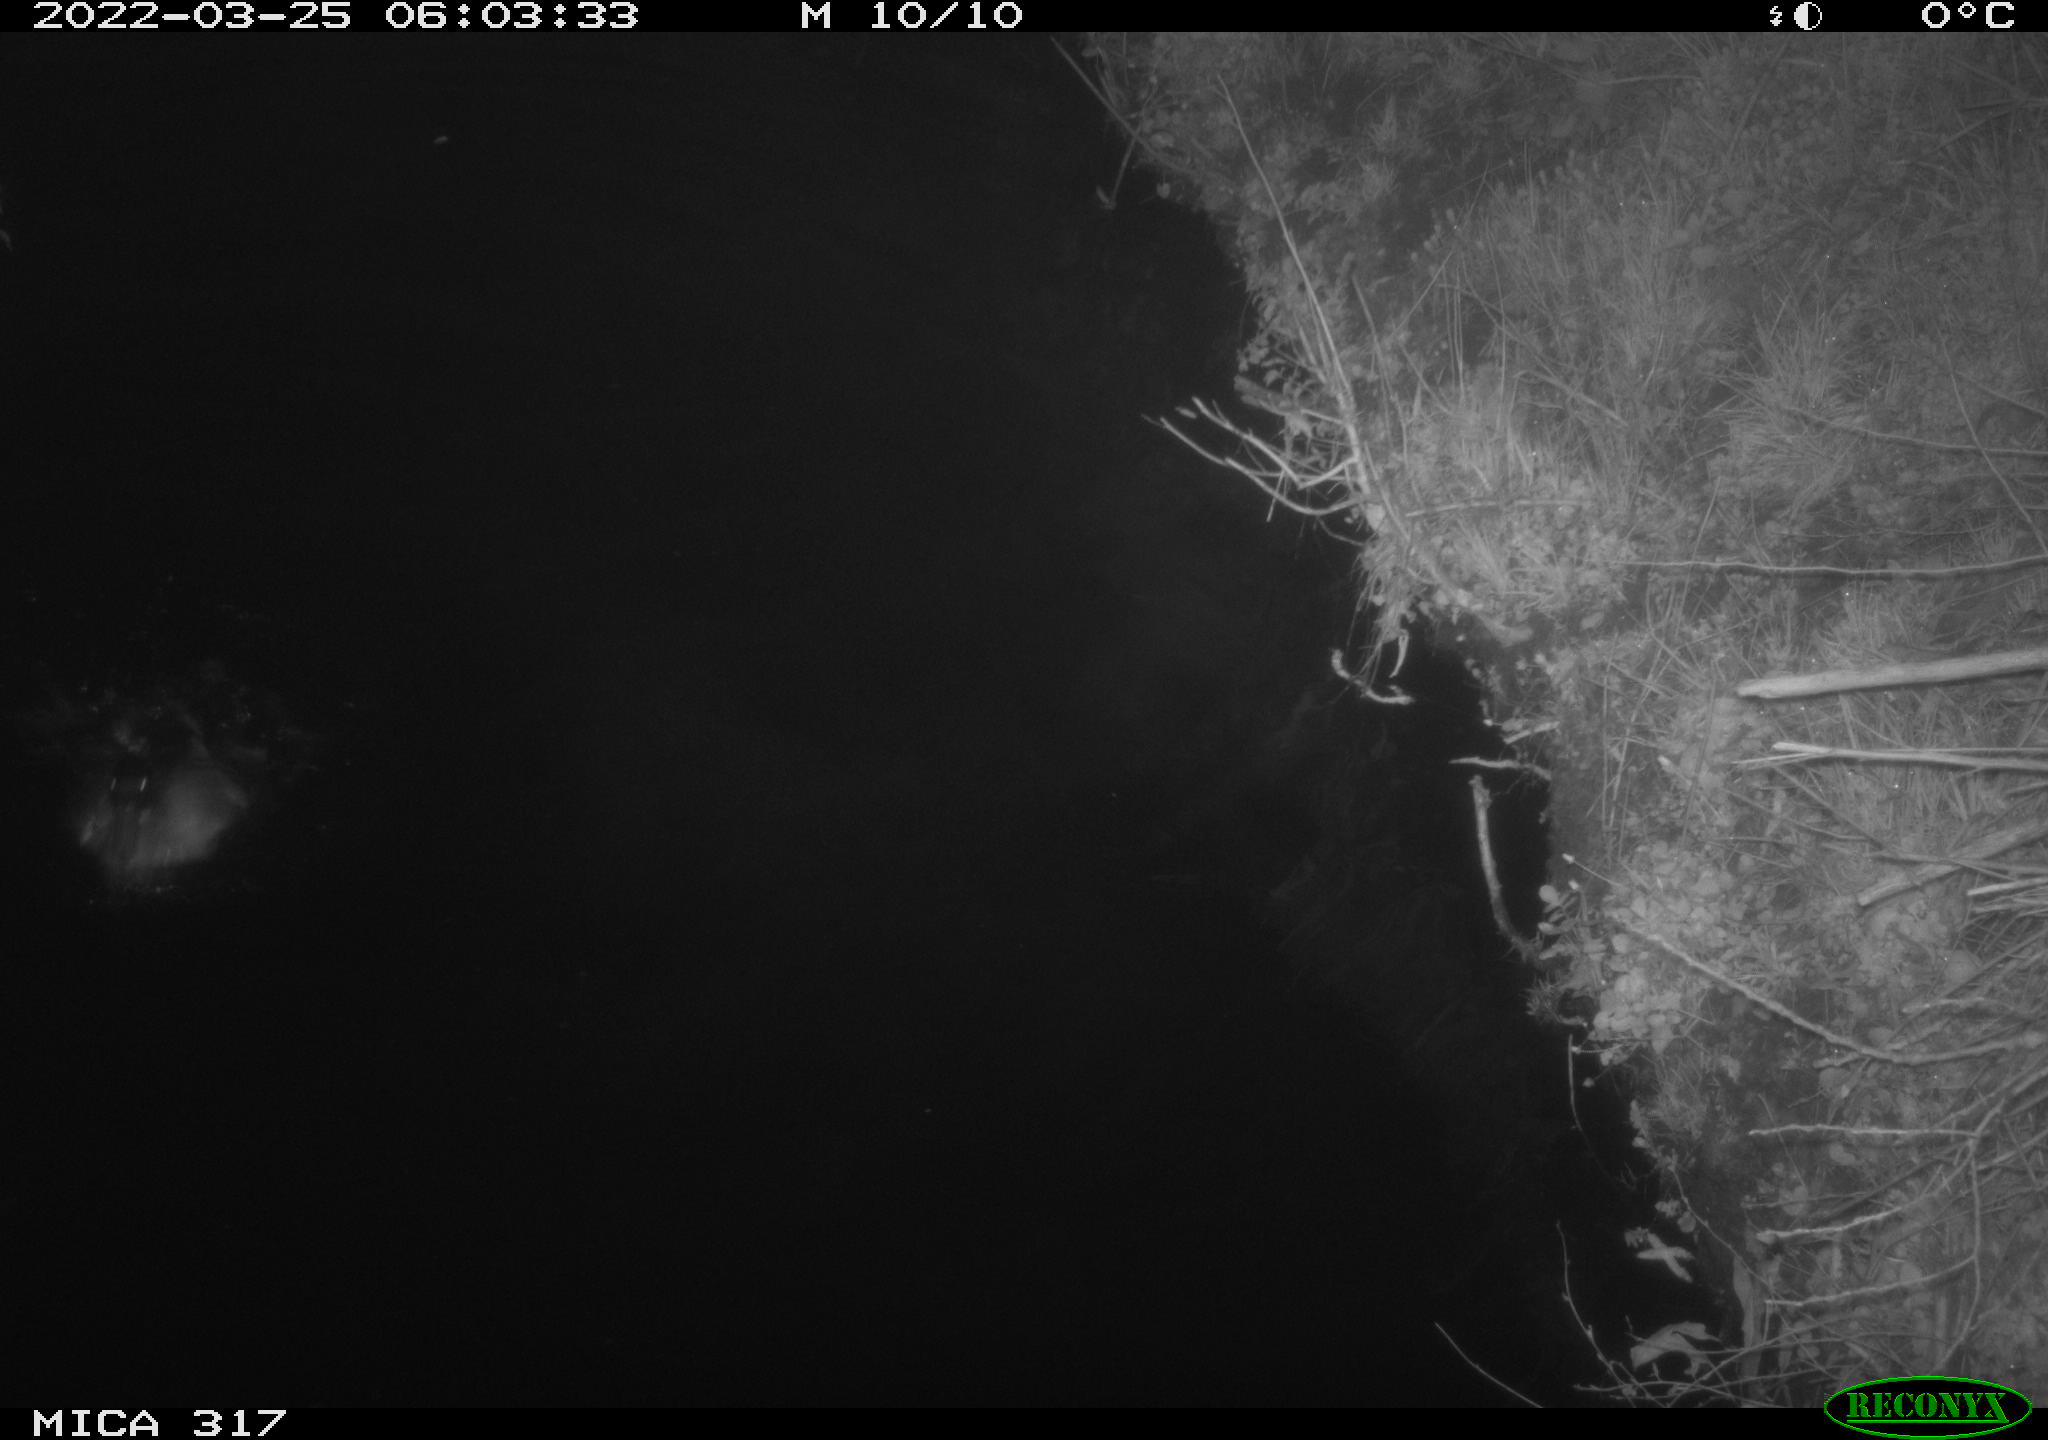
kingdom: Animalia
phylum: Chordata
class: Aves
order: Anseriformes
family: Anatidae
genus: Anas
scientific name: Anas platyrhynchos
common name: Mallard
